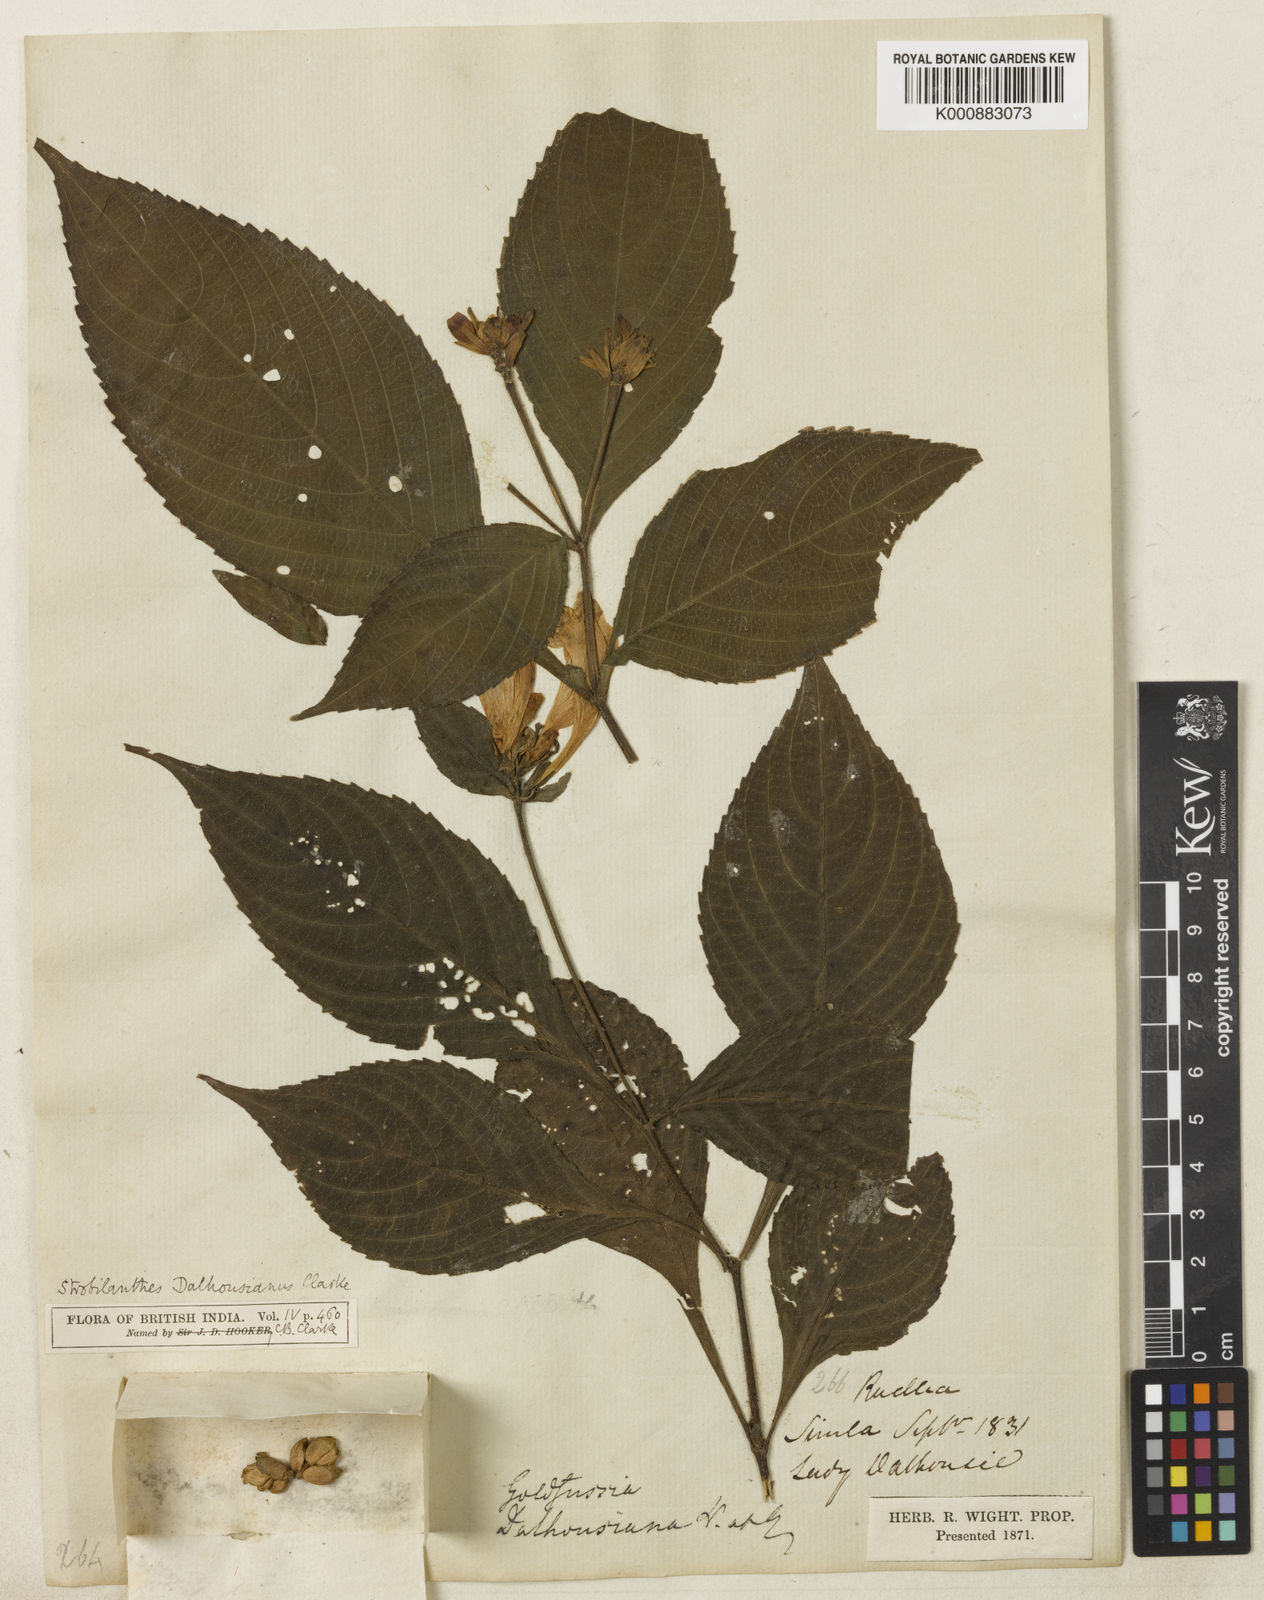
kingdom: Plantae
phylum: Tracheophyta
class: Magnoliopsida
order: Lamiales
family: Acanthaceae
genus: Strobilanthes
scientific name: Strobilanthes
